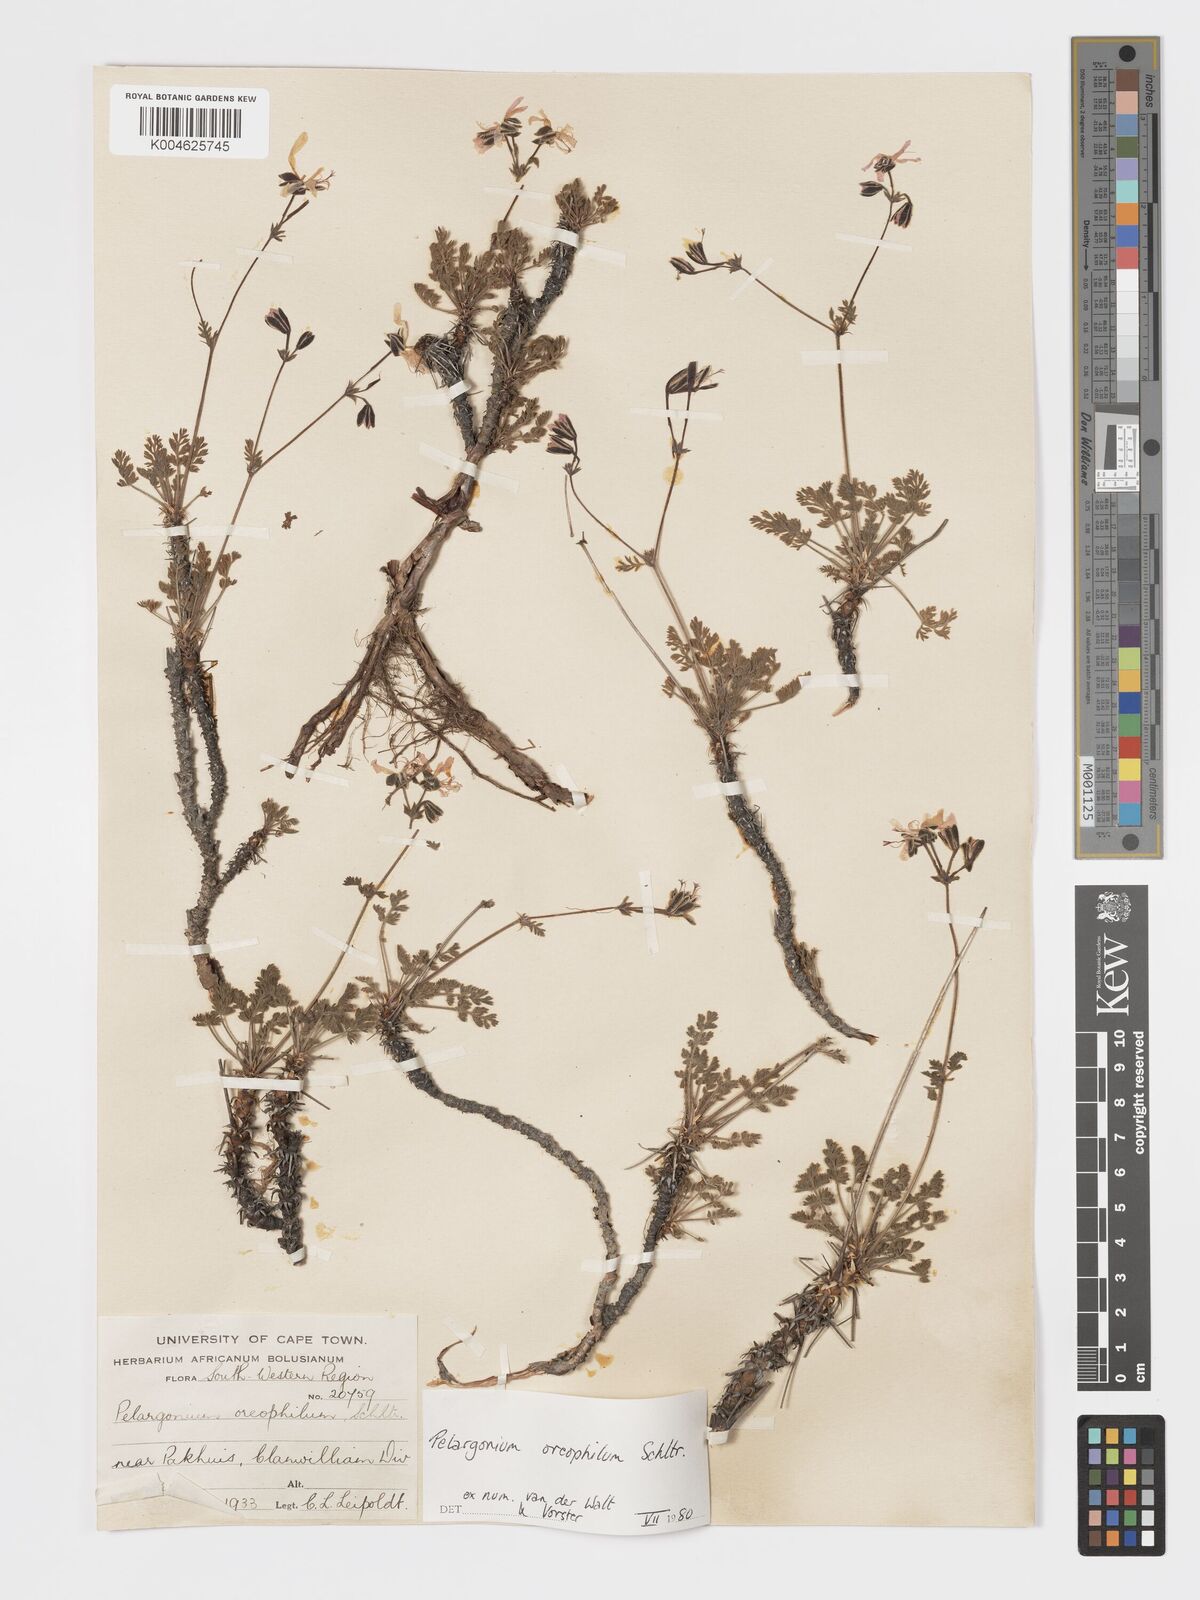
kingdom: Plantae
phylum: Tracheophyta
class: Magnoliopsida
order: Geraniales
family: Geraniaceae
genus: Pelargonium
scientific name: Pelargonium oreophilum
